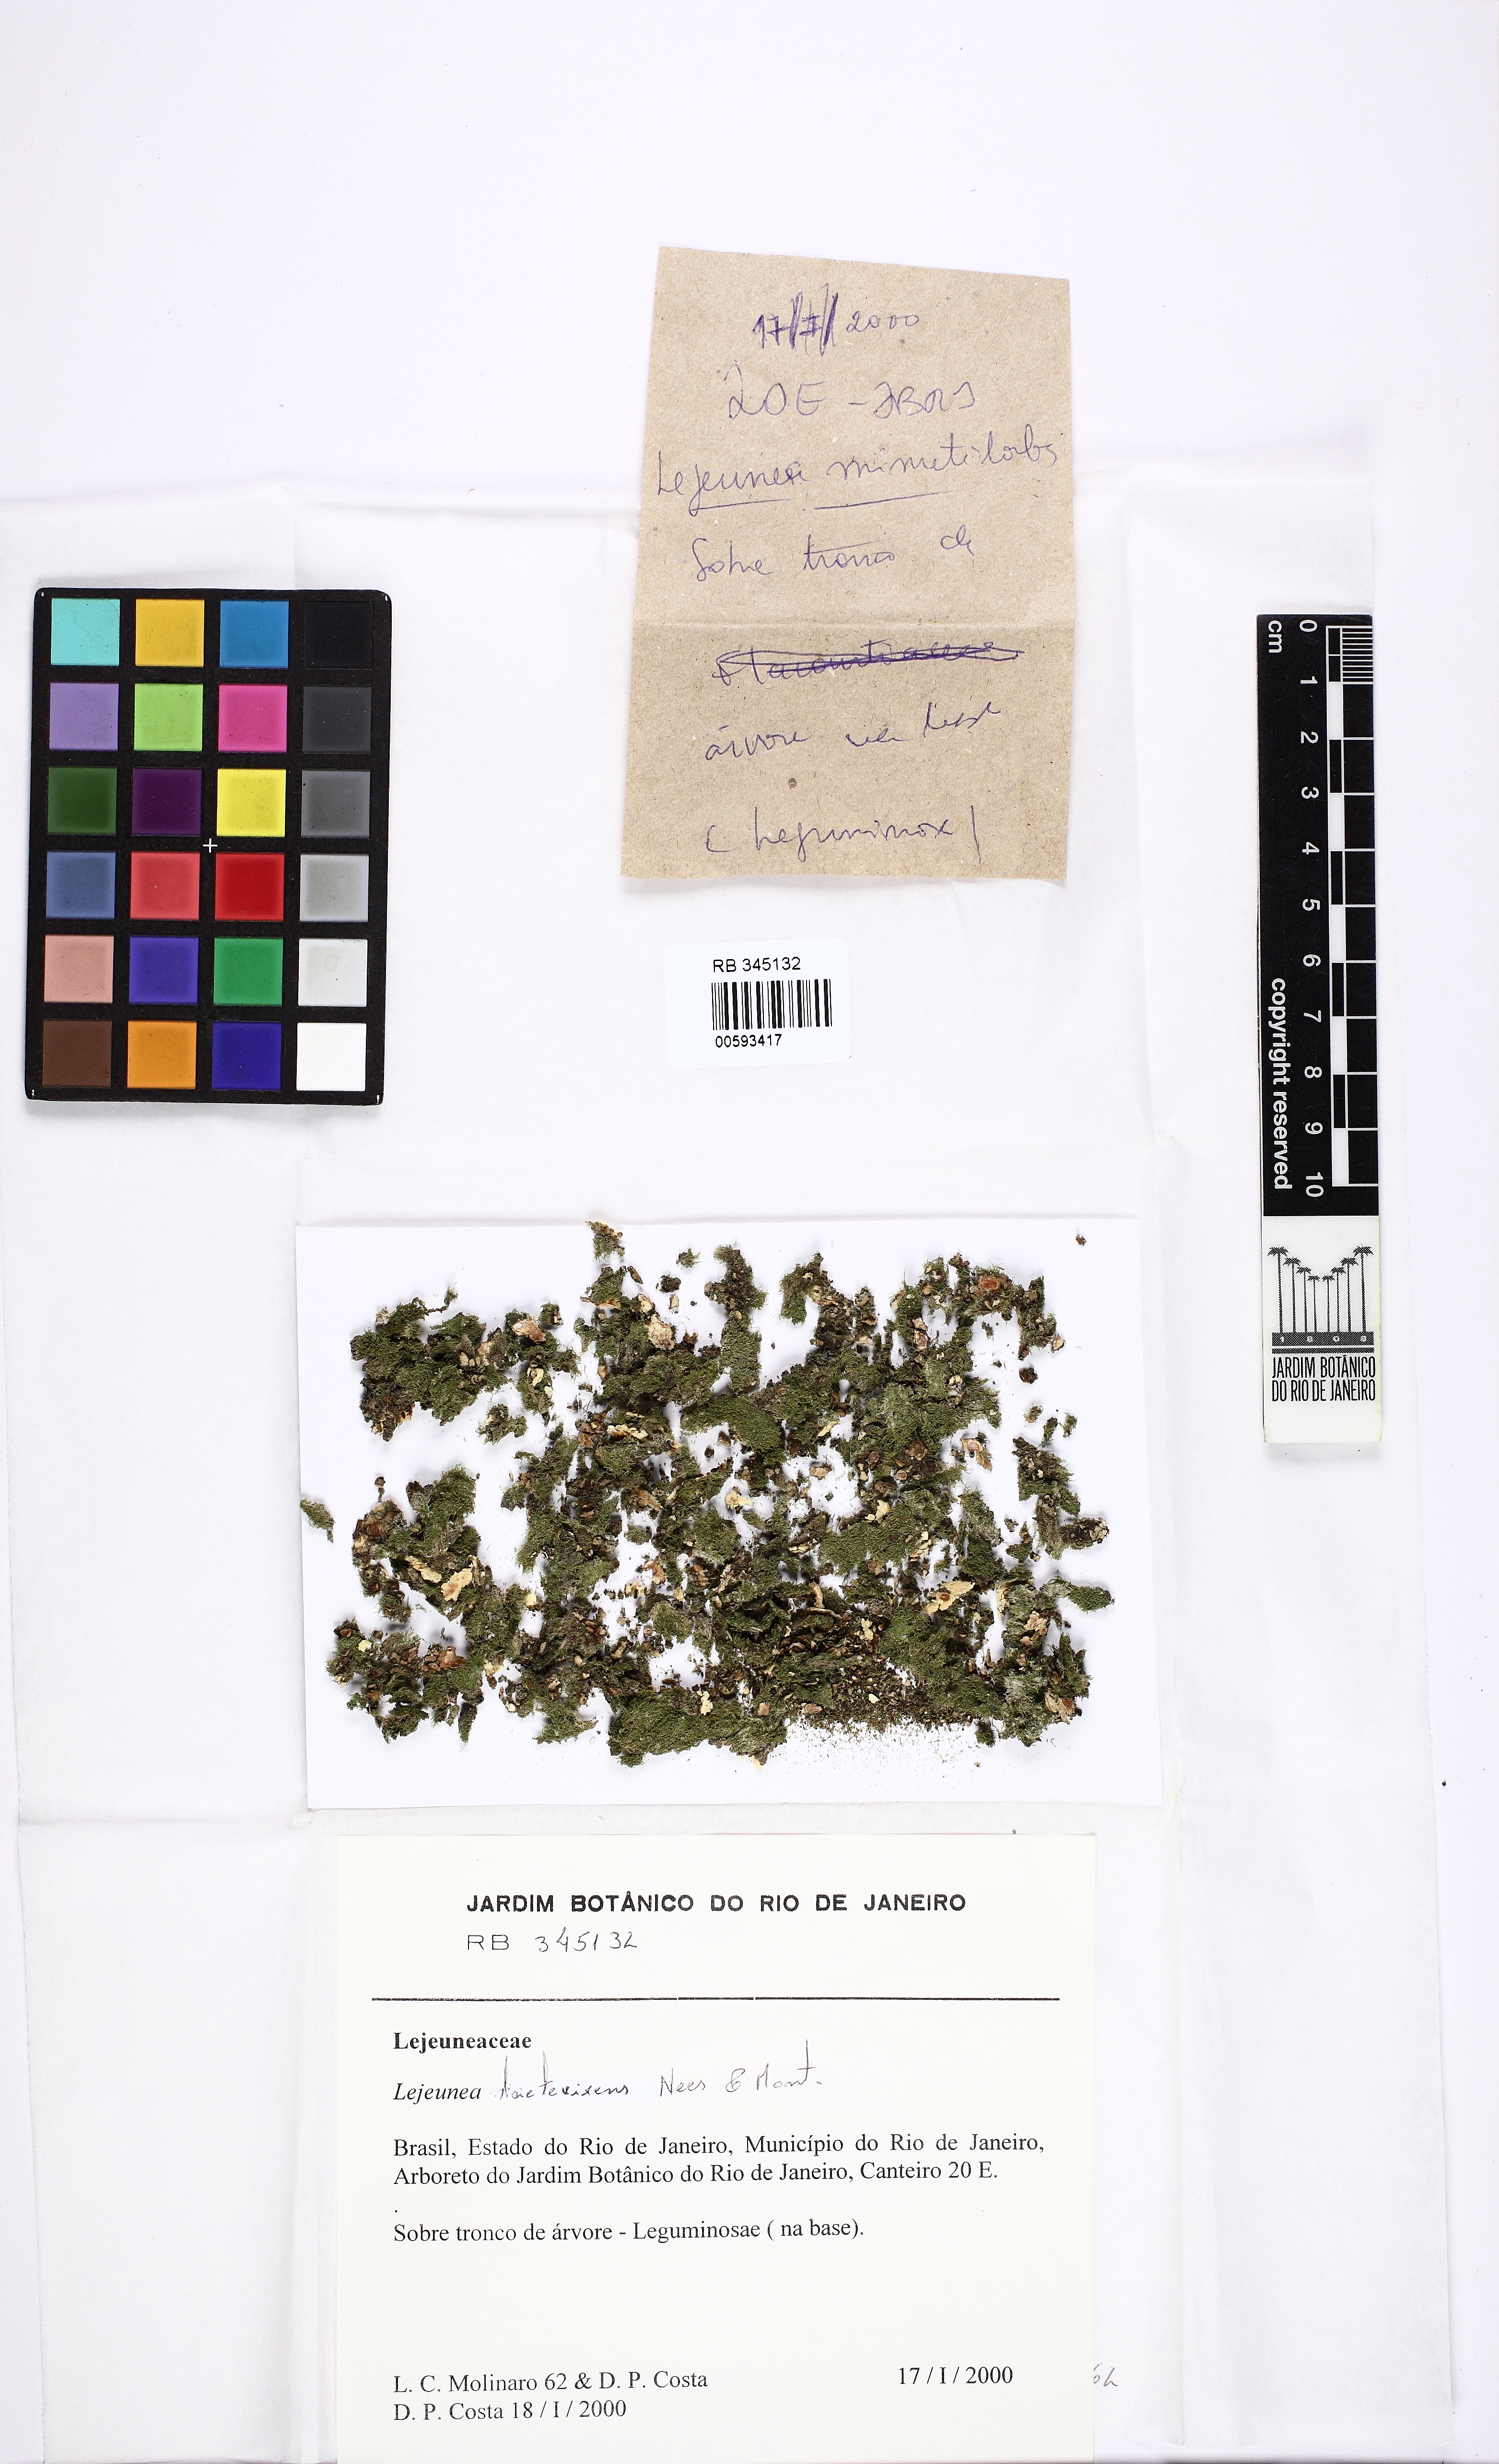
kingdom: Plantae
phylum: Marchantiophyta
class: Jungermanniopsida
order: Porellales
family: Lejeuneaceae
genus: Lejeunea
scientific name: Lejeunea laetevirens
